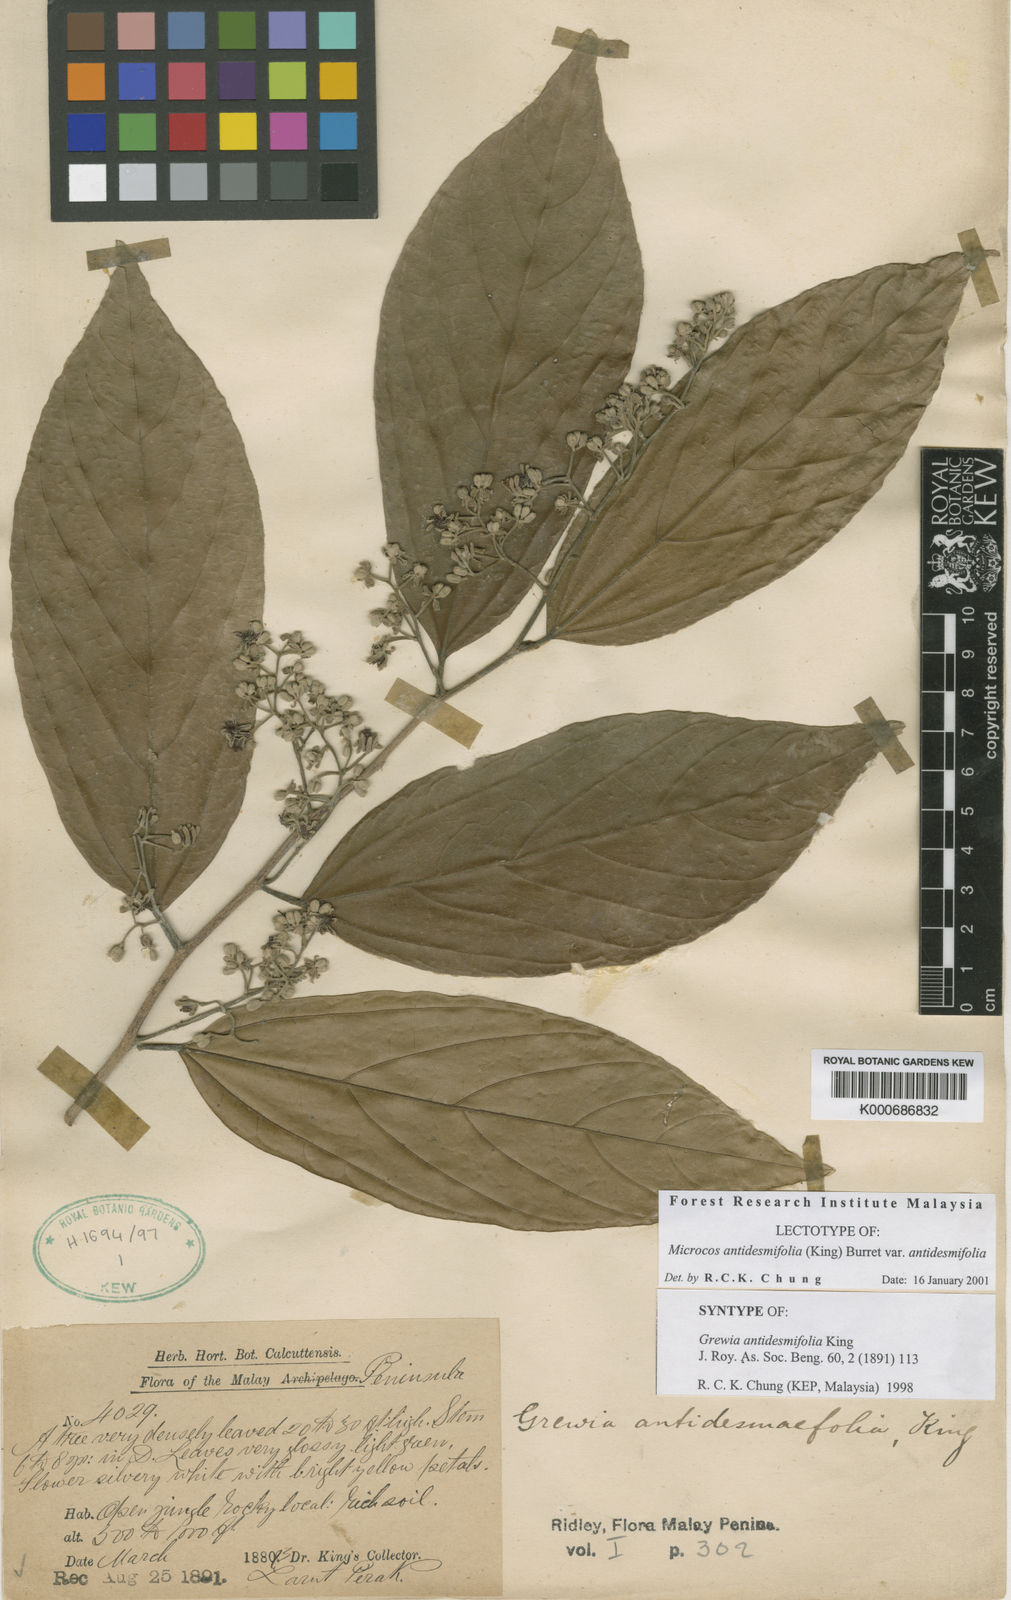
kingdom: Plantae
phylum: Tracheophyta
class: Magnoliopsida
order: Malvales
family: Malvaceae
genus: Microcos
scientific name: Microcos antidesmifolia
